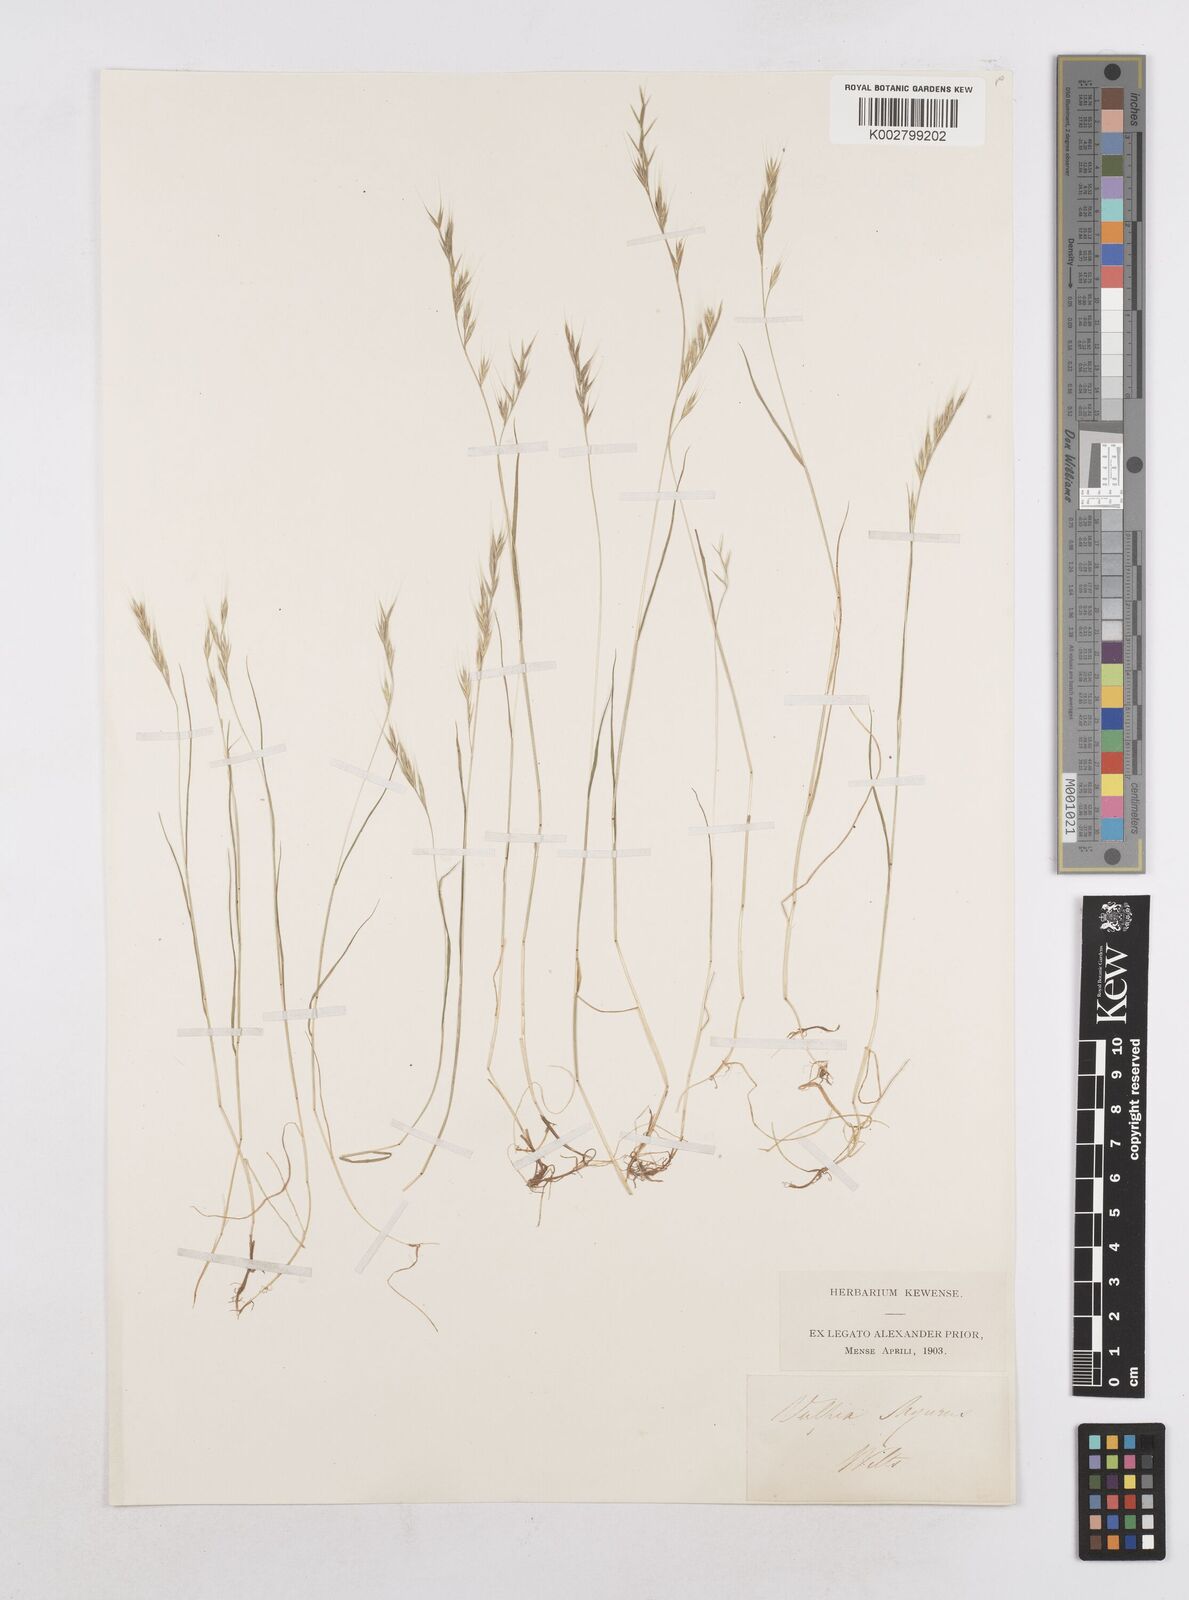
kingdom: Plantae
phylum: Tracheophyta
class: Liliopsida
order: Poales
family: Poaceae
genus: Festuca
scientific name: Festuca bromoides
